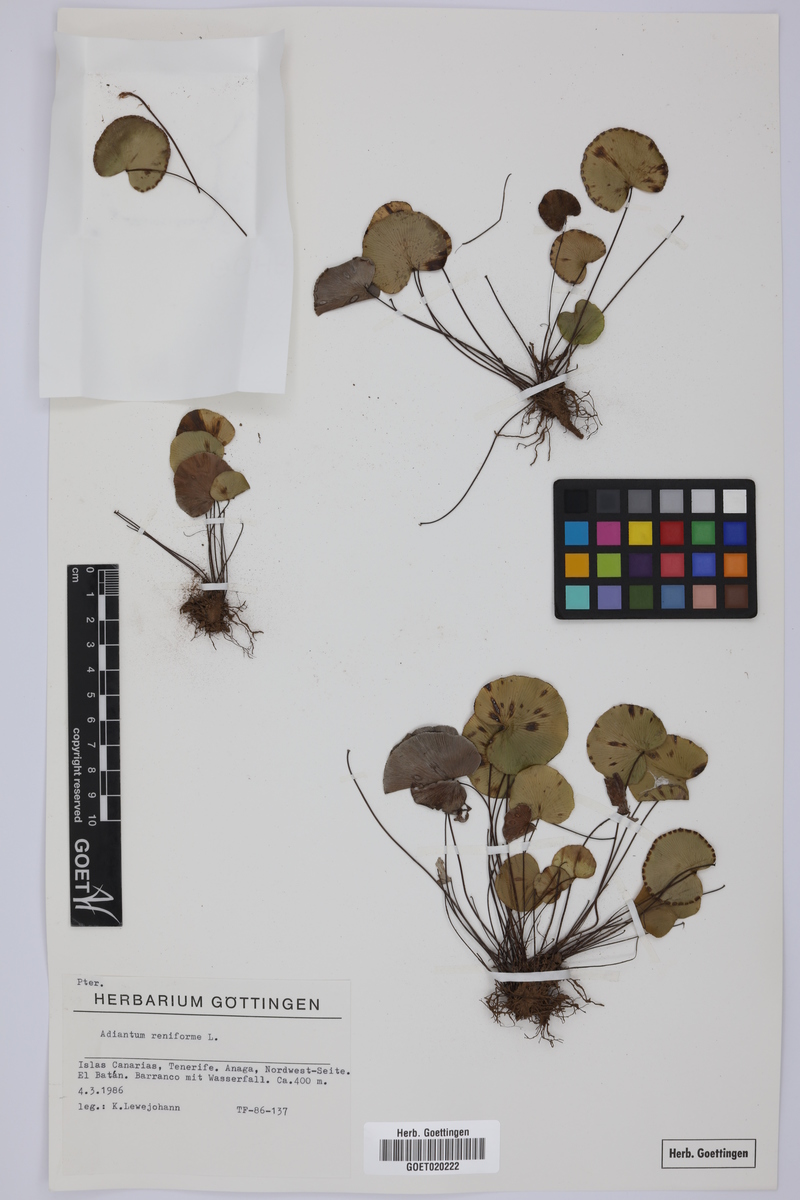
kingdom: Plantae
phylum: Tracheophyta
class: Polypodiopsida
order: Polypodiales
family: Pteridaceae
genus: Adiantum
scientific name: Adiantum reniforme
